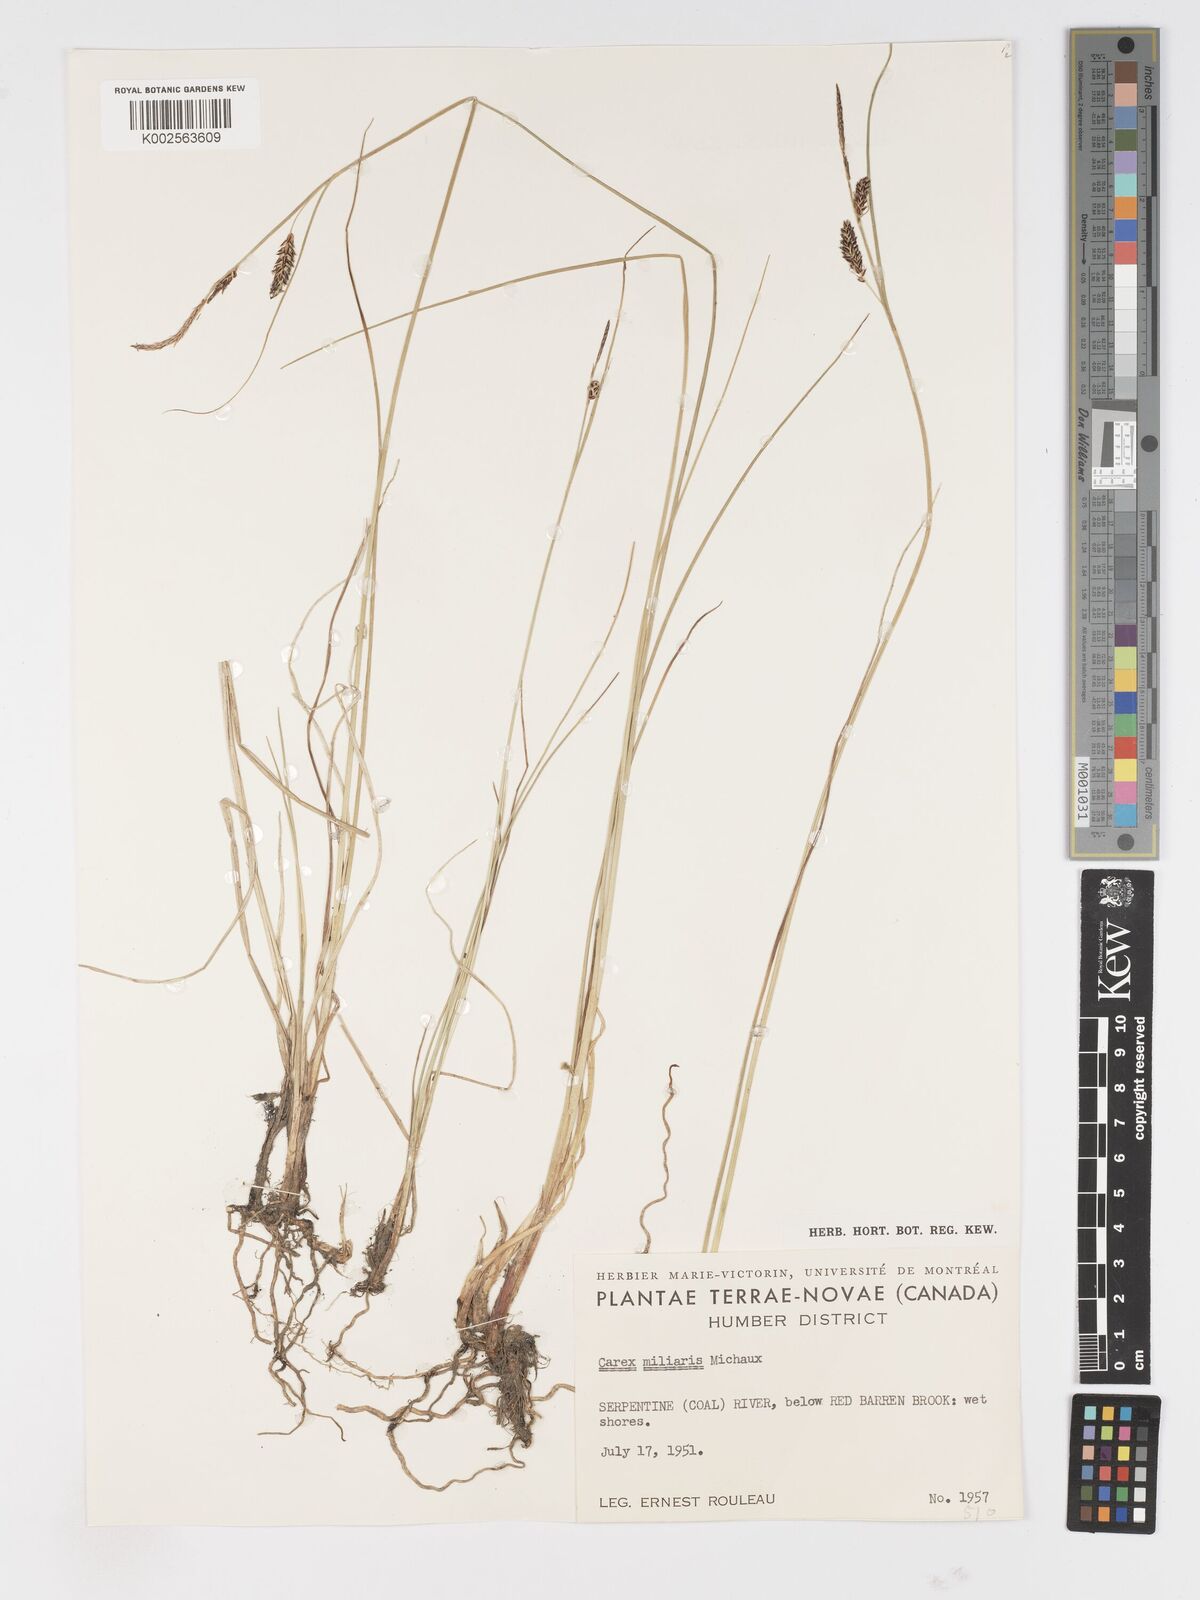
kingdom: Plantae
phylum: Tracheophyta
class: Liliopsida
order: Poales
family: Cyperaceae
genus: Carex
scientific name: Carex miliaris
